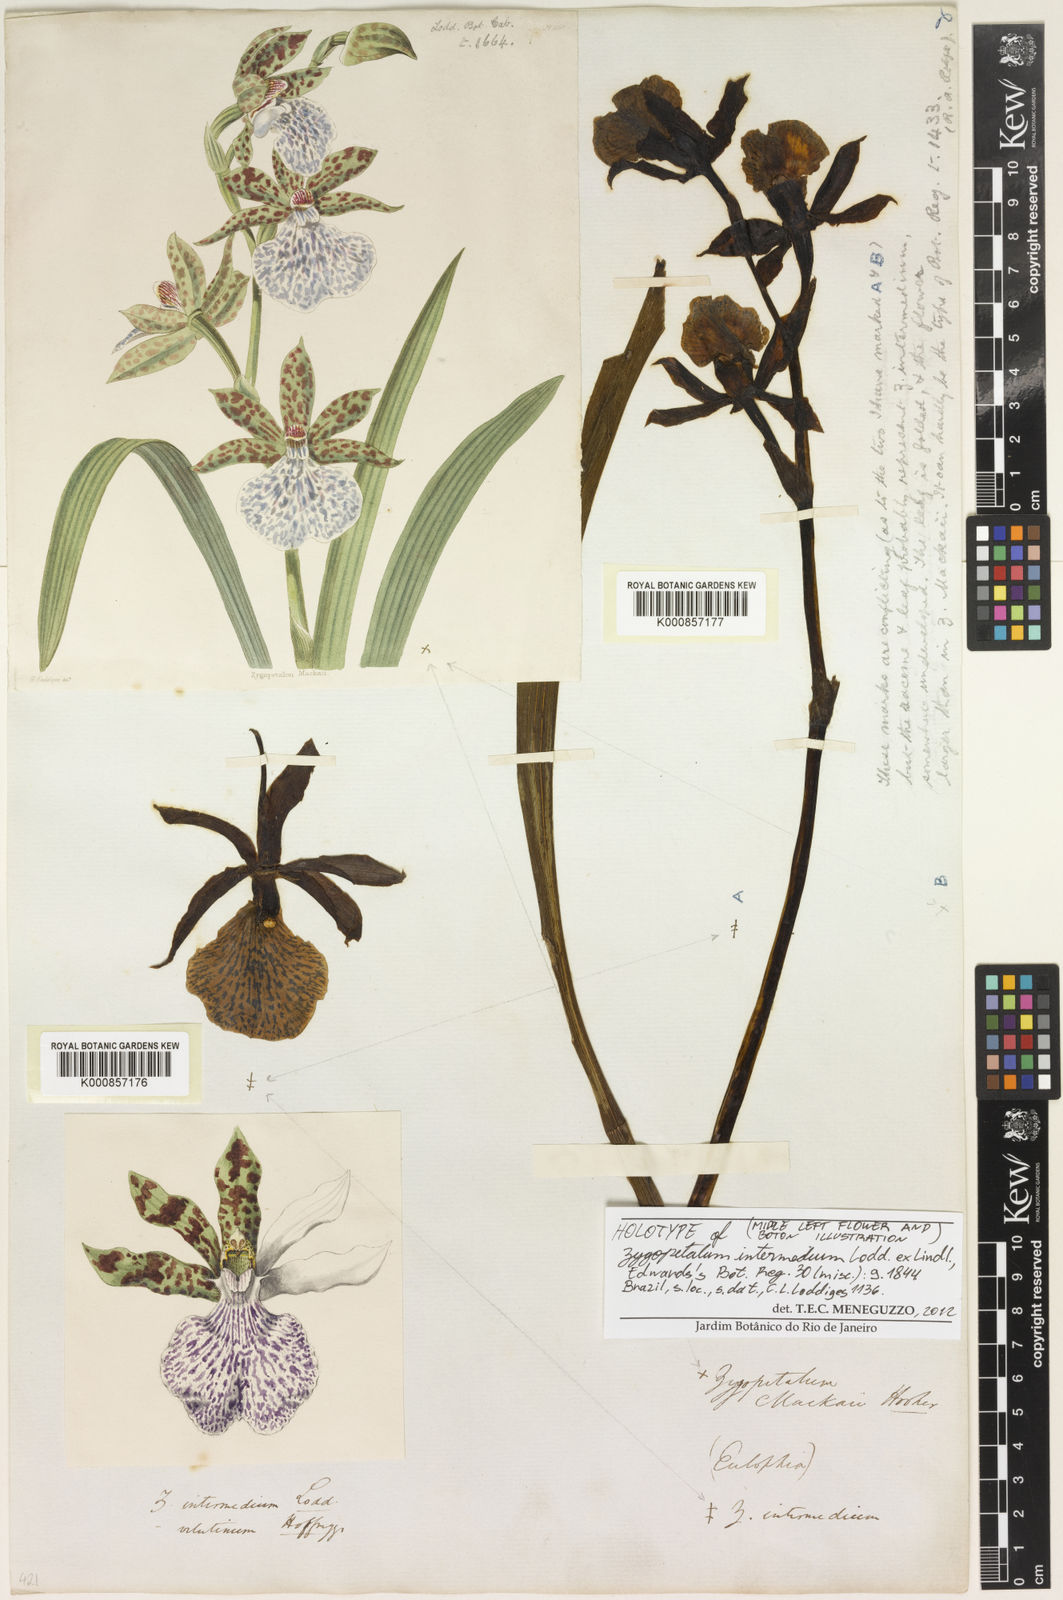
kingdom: Plantae
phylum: Tracheophyta
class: Liliopsida
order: Asparagales
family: Orchidaceae
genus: Zygopetalum
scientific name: Zygopetalum maculatum
